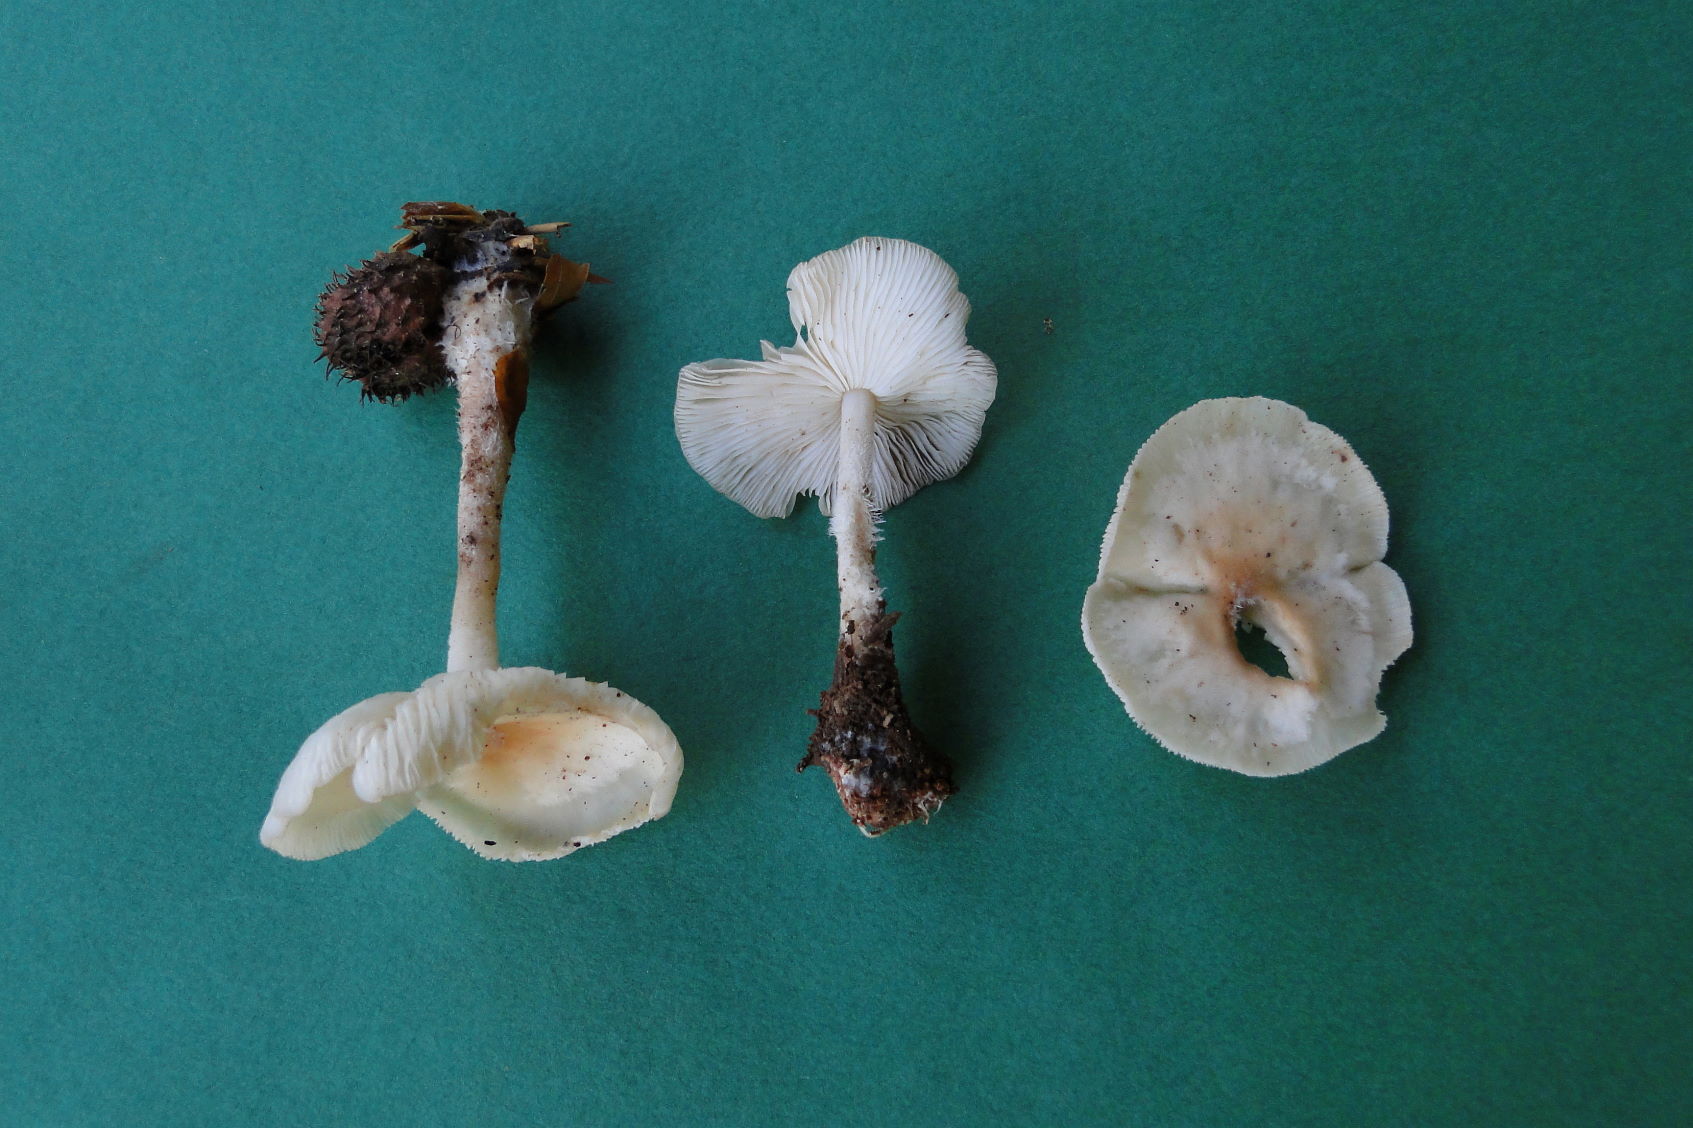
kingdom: Fungi
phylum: Basidiomycota
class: Agaricomycetes
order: Agaricales
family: Omphalotaceae
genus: Gymnopus
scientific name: Gymnopus hariolorum
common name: hvidkåls-fladhat
